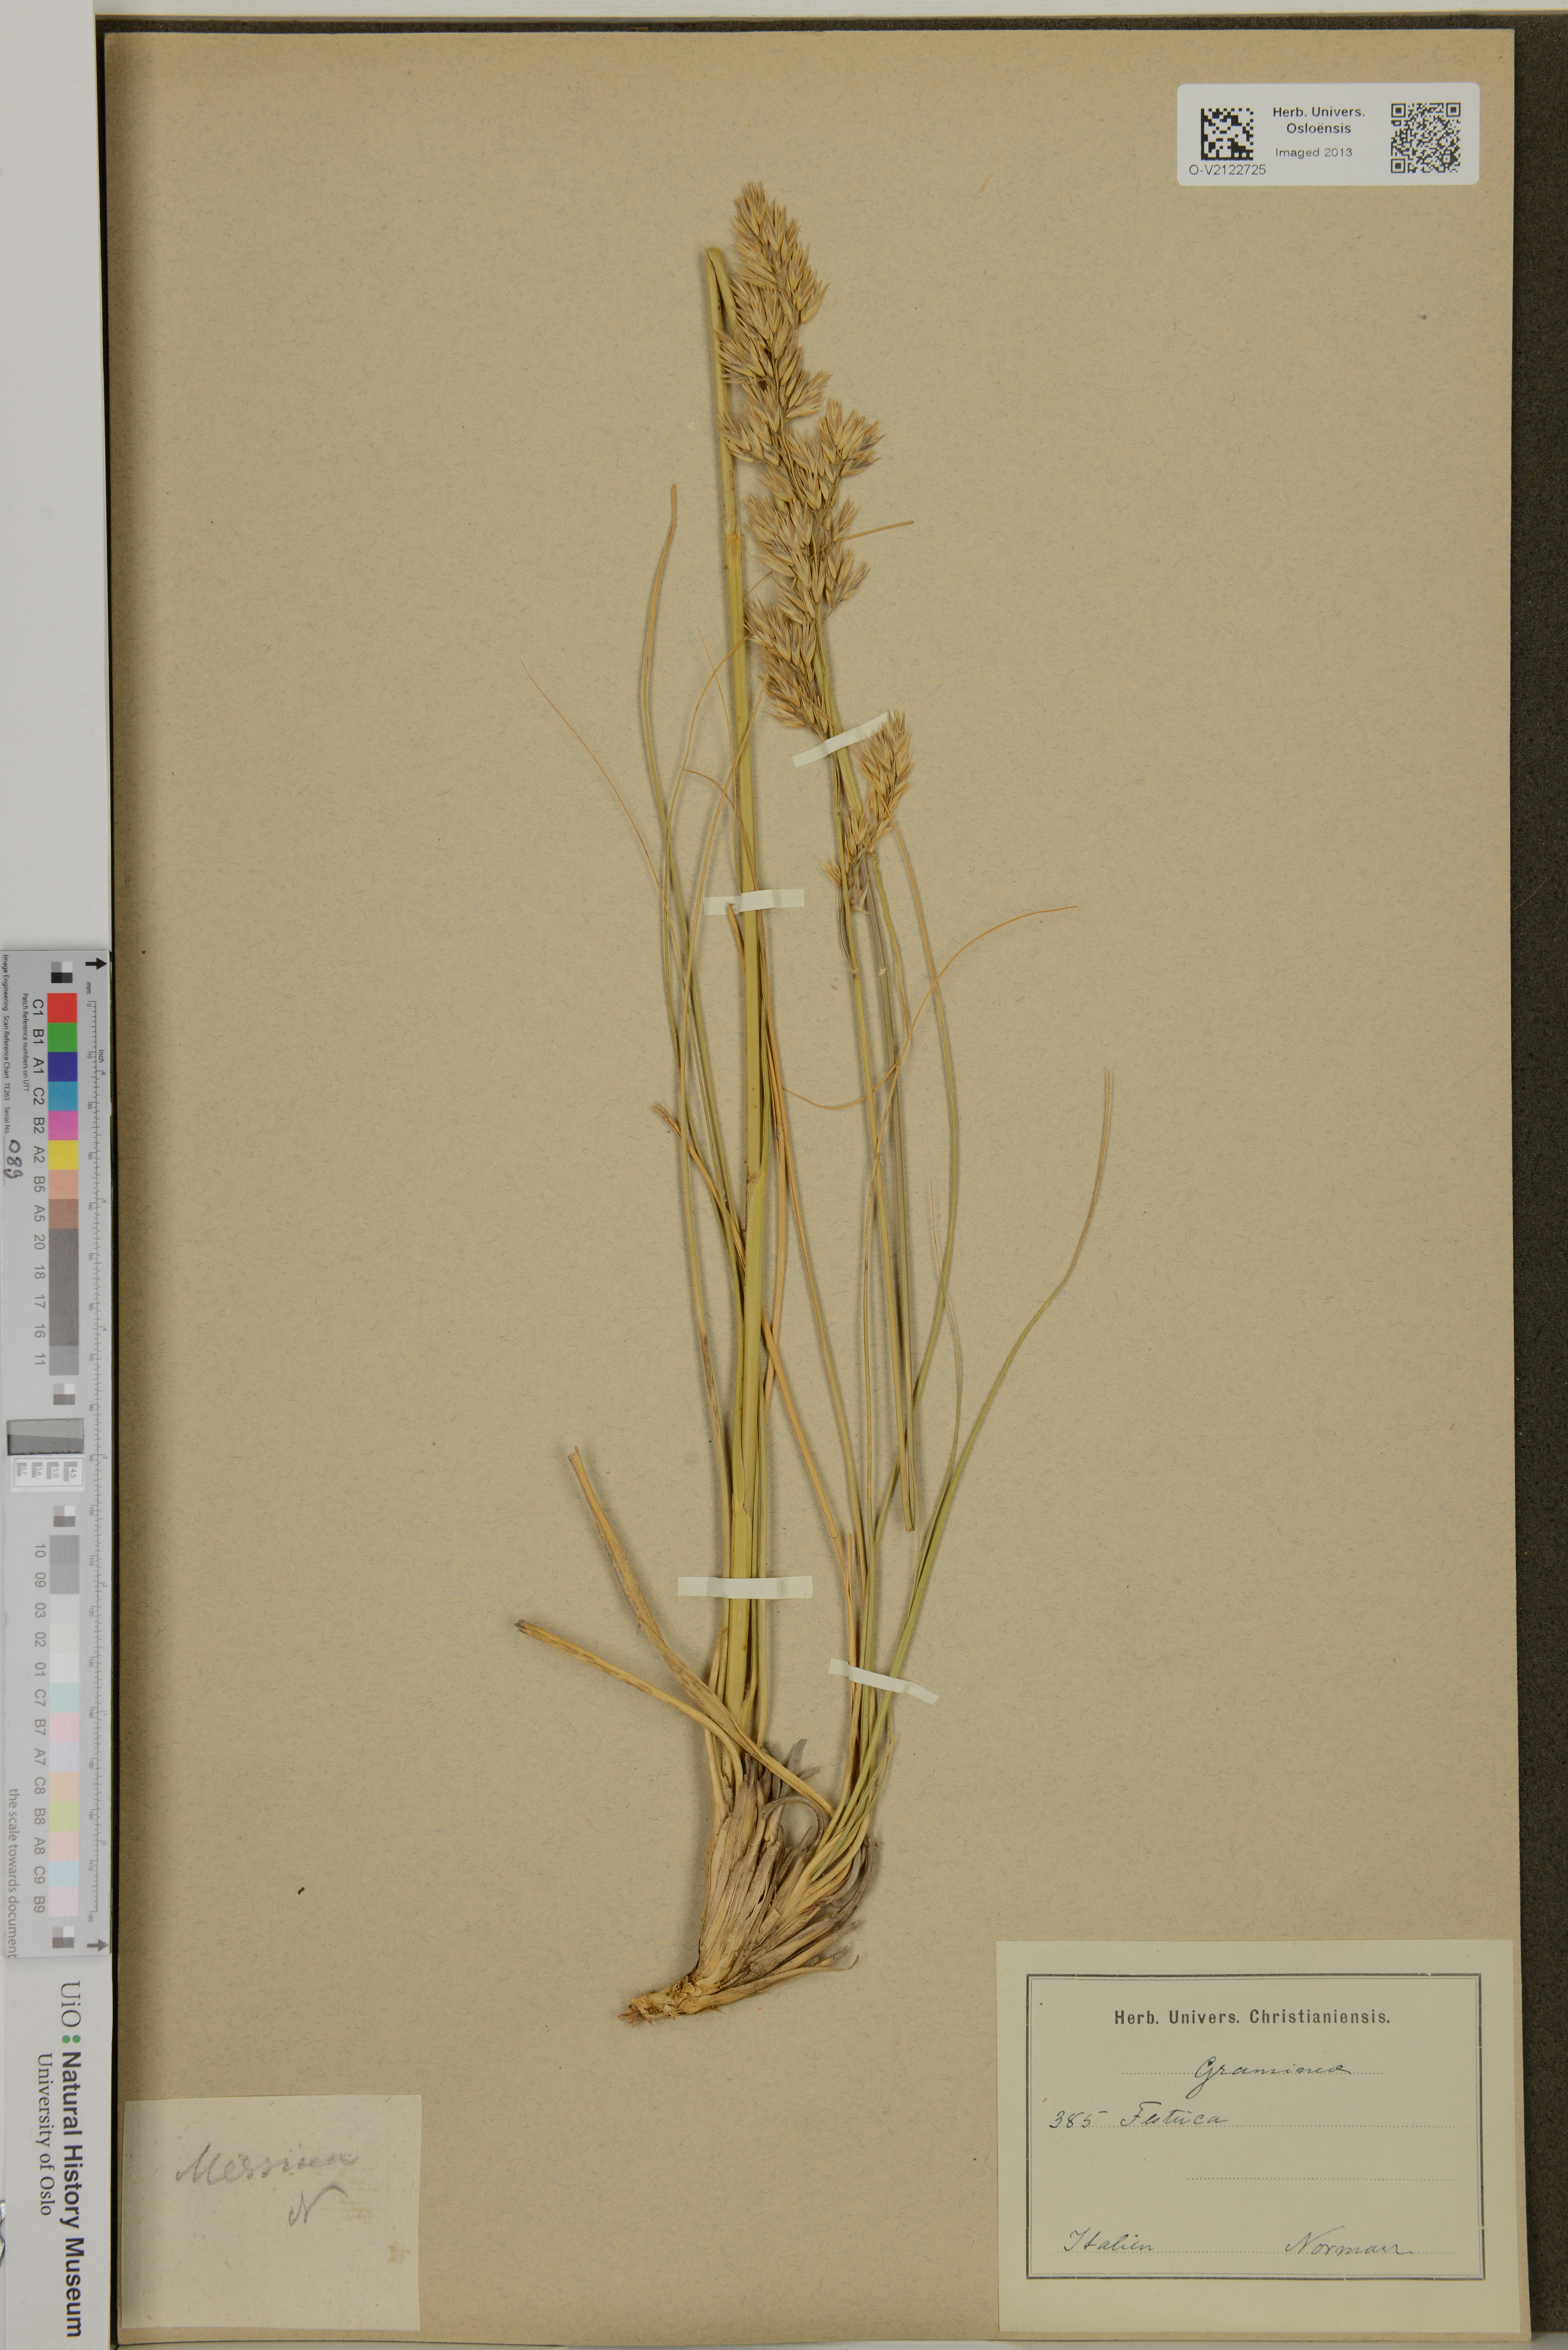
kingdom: Plantae
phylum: Tracheophyta
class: Liliopsida
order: Poales
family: Poaceae
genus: Festuca
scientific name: Festuca
